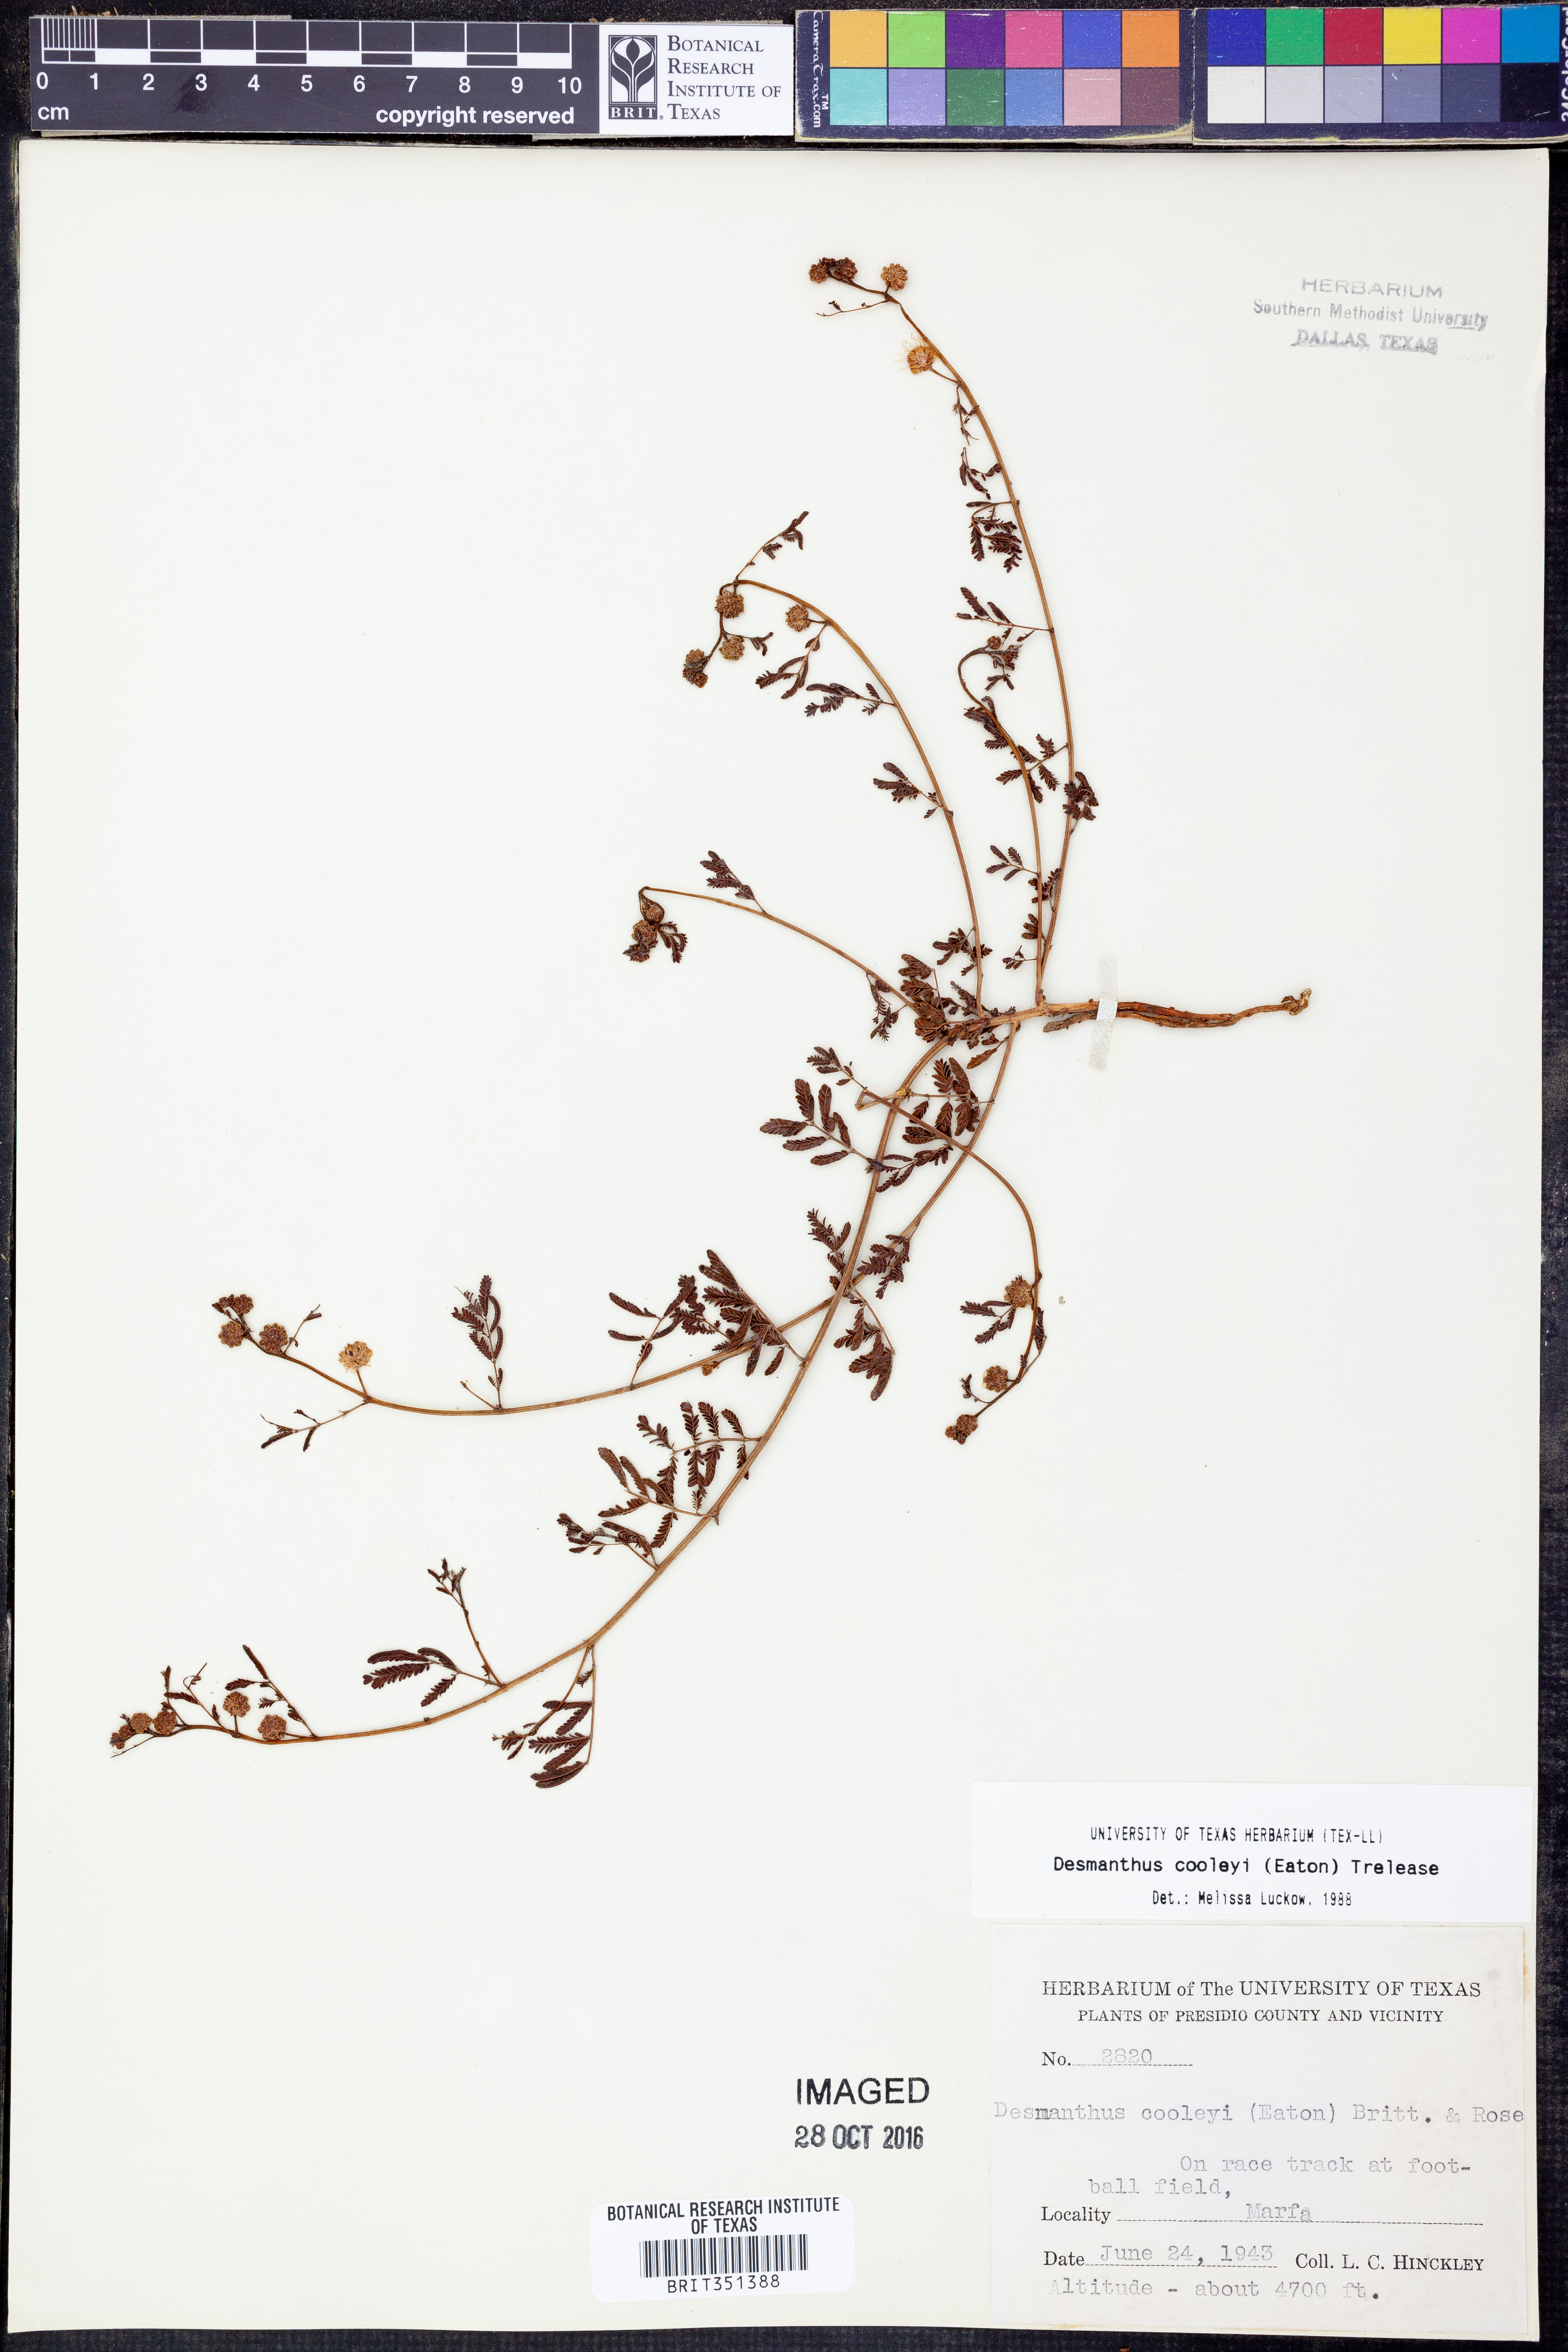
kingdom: Plantae
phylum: Tracheophyta
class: Magnoliopsida
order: Fabales
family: Fabaceae
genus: Desmanthus
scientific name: Desmanthus cooleyi
